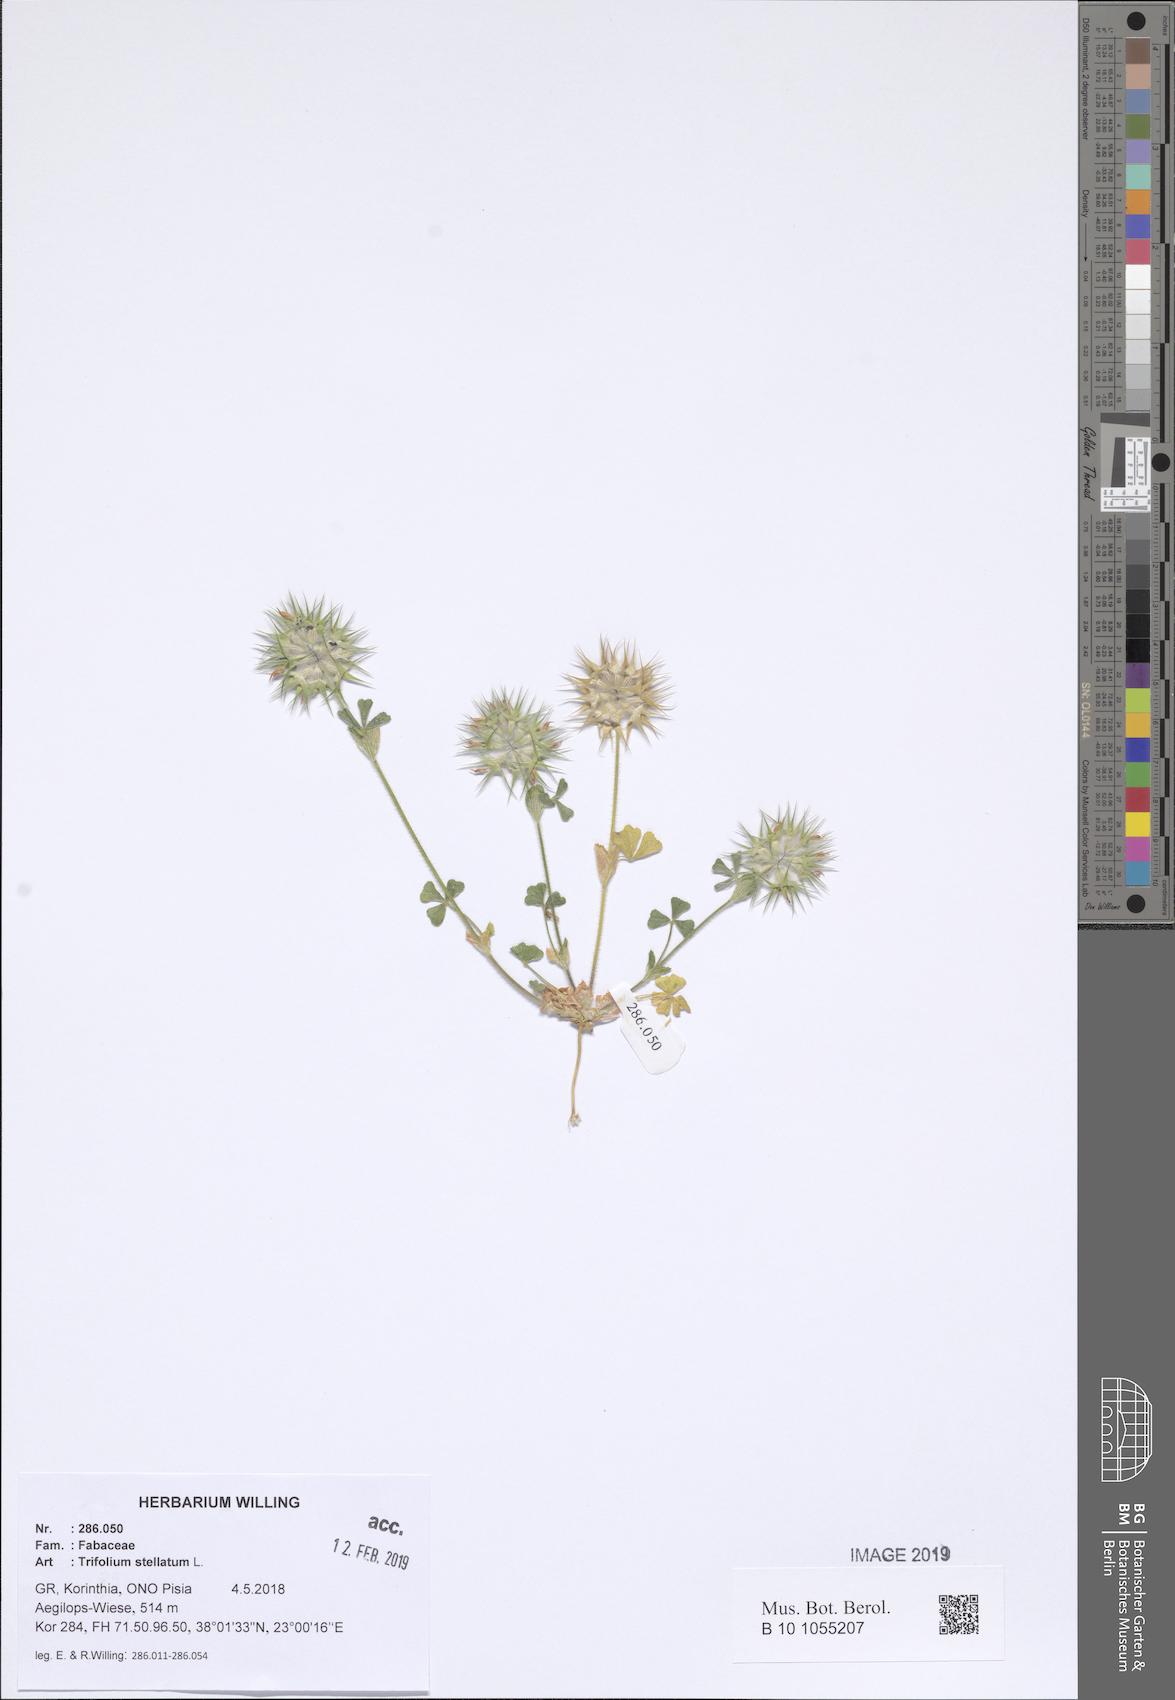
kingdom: Plantae
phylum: Tracheophyta
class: Magnoliopsida
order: Fabales
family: Fabaceae
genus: Trifolium
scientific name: Trifolium stellatum
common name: Starry clover
